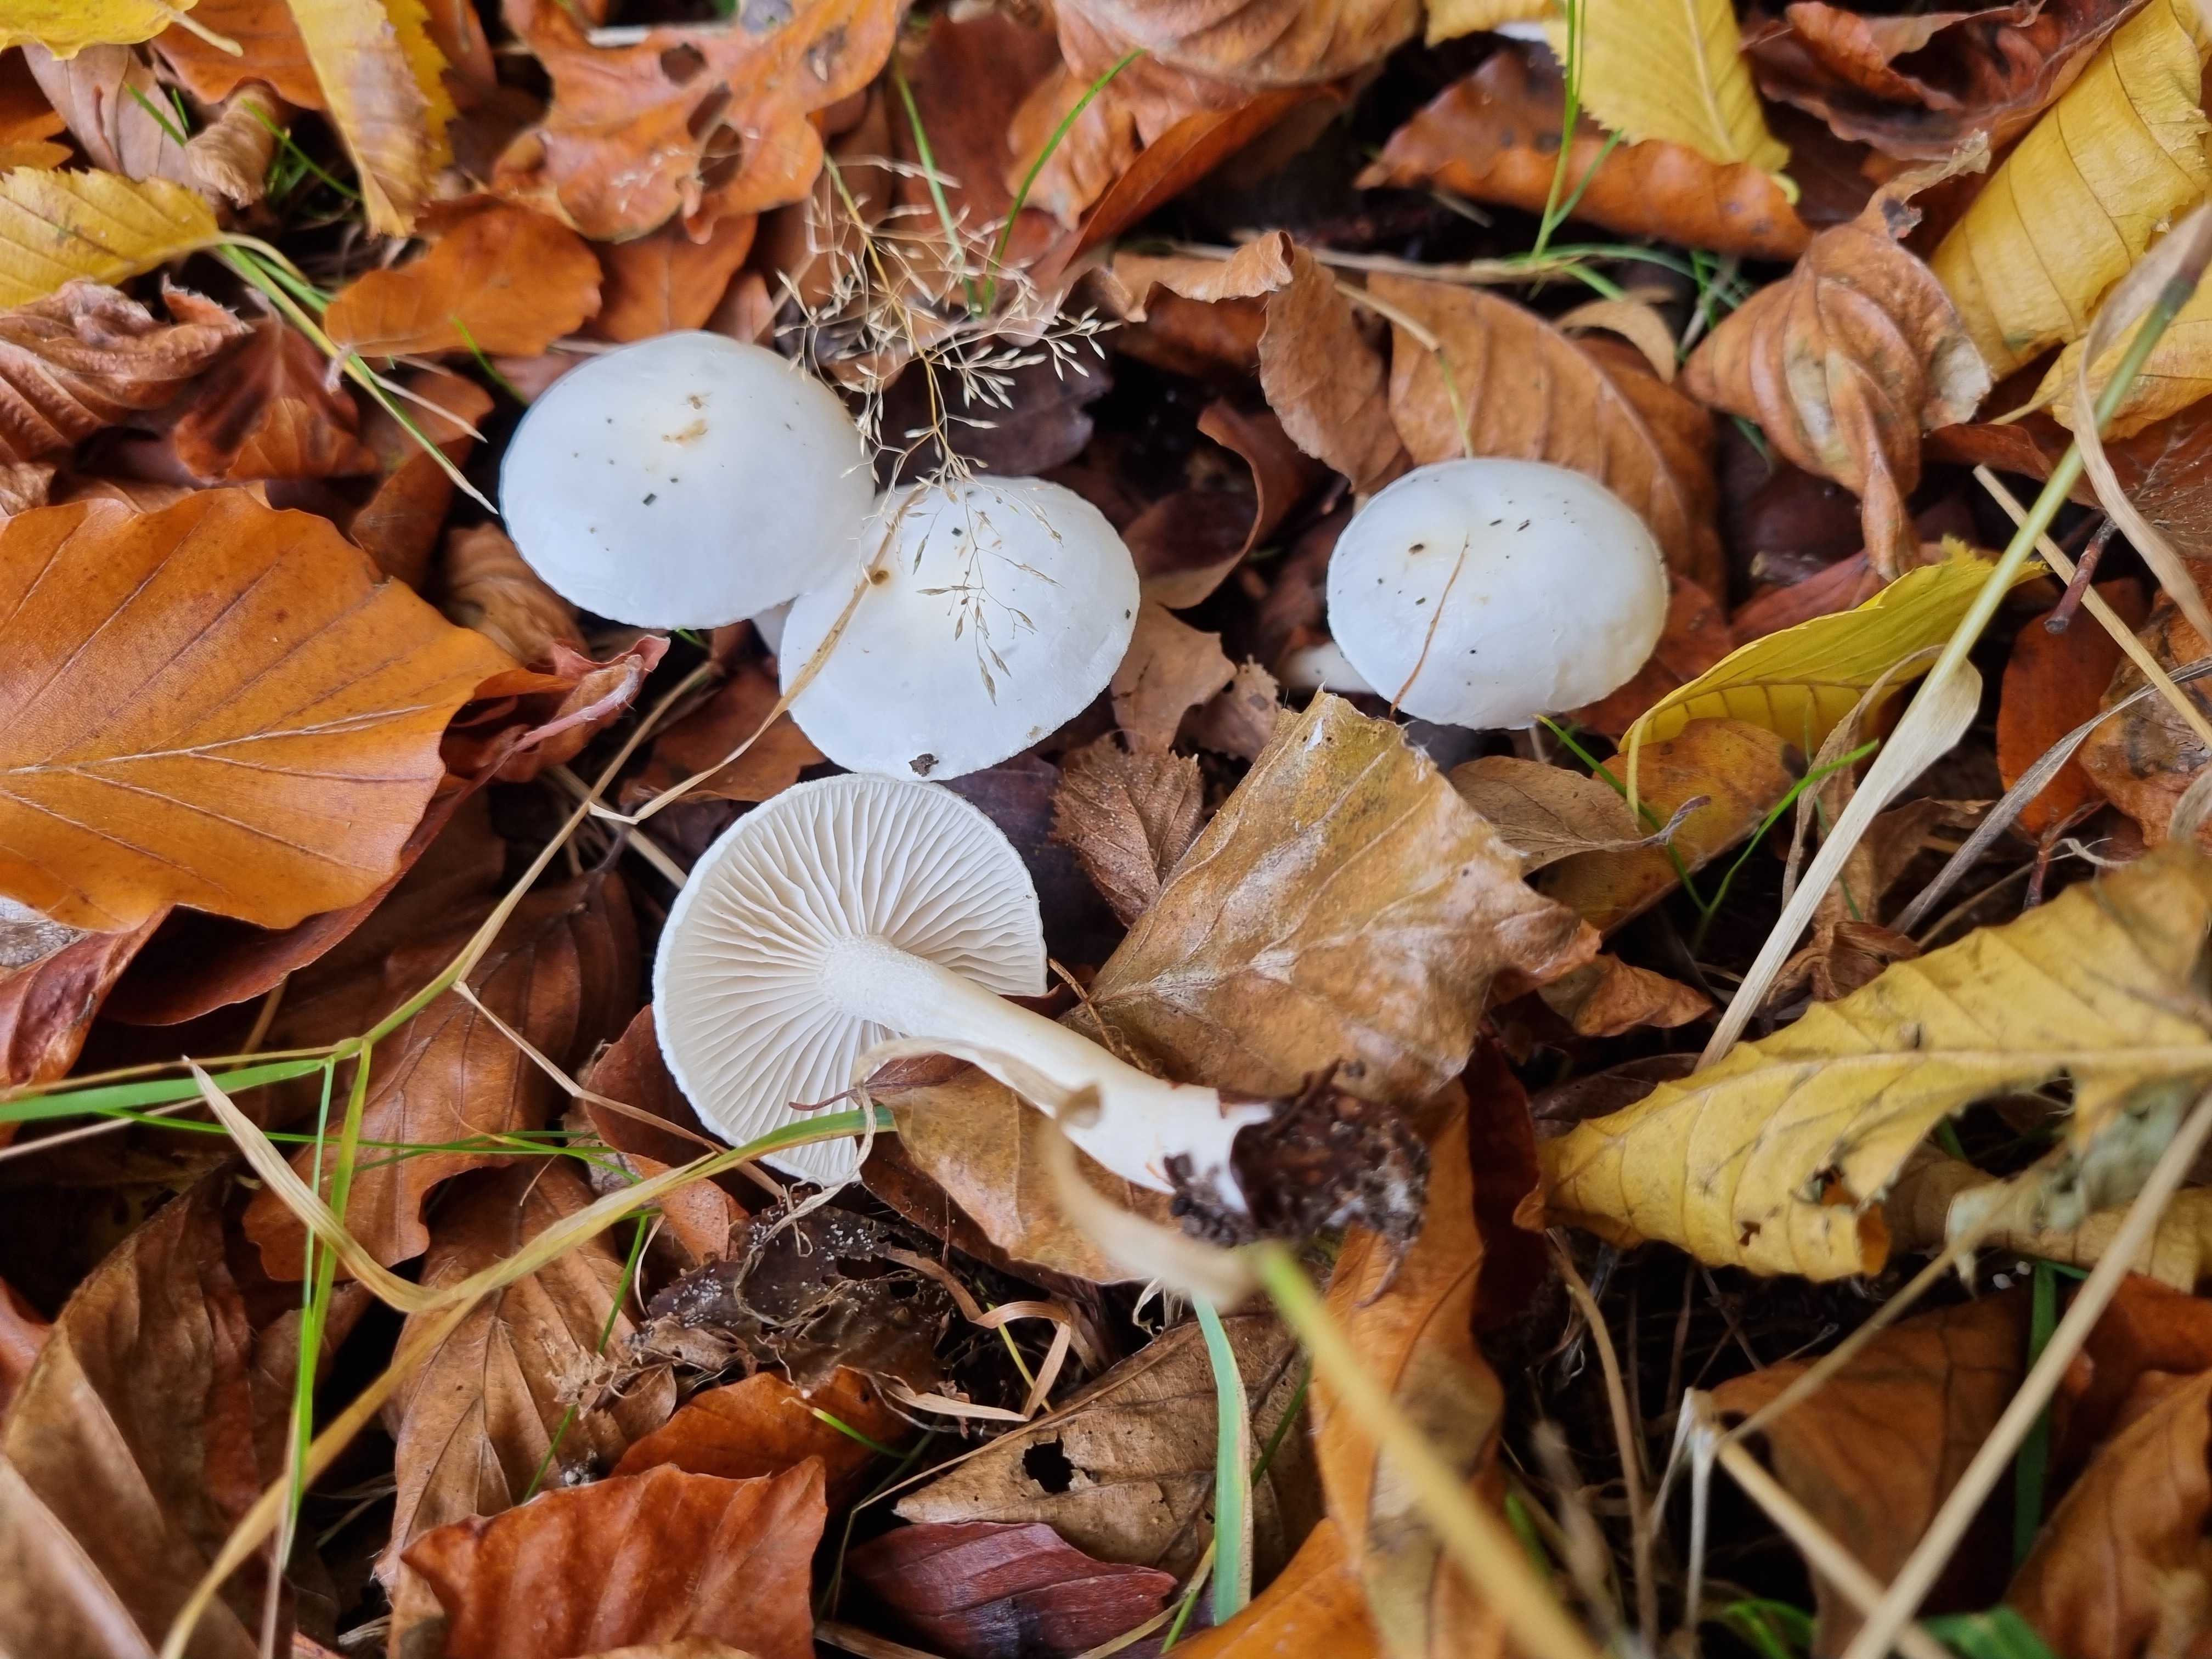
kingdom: Fungi
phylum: Basidiomycota
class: Agaricomycetes
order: Agaricales
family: Hygrophoraceae
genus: Hygrophorus
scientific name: Hygrophorus eburneus
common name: elfenbens-sneglehat
